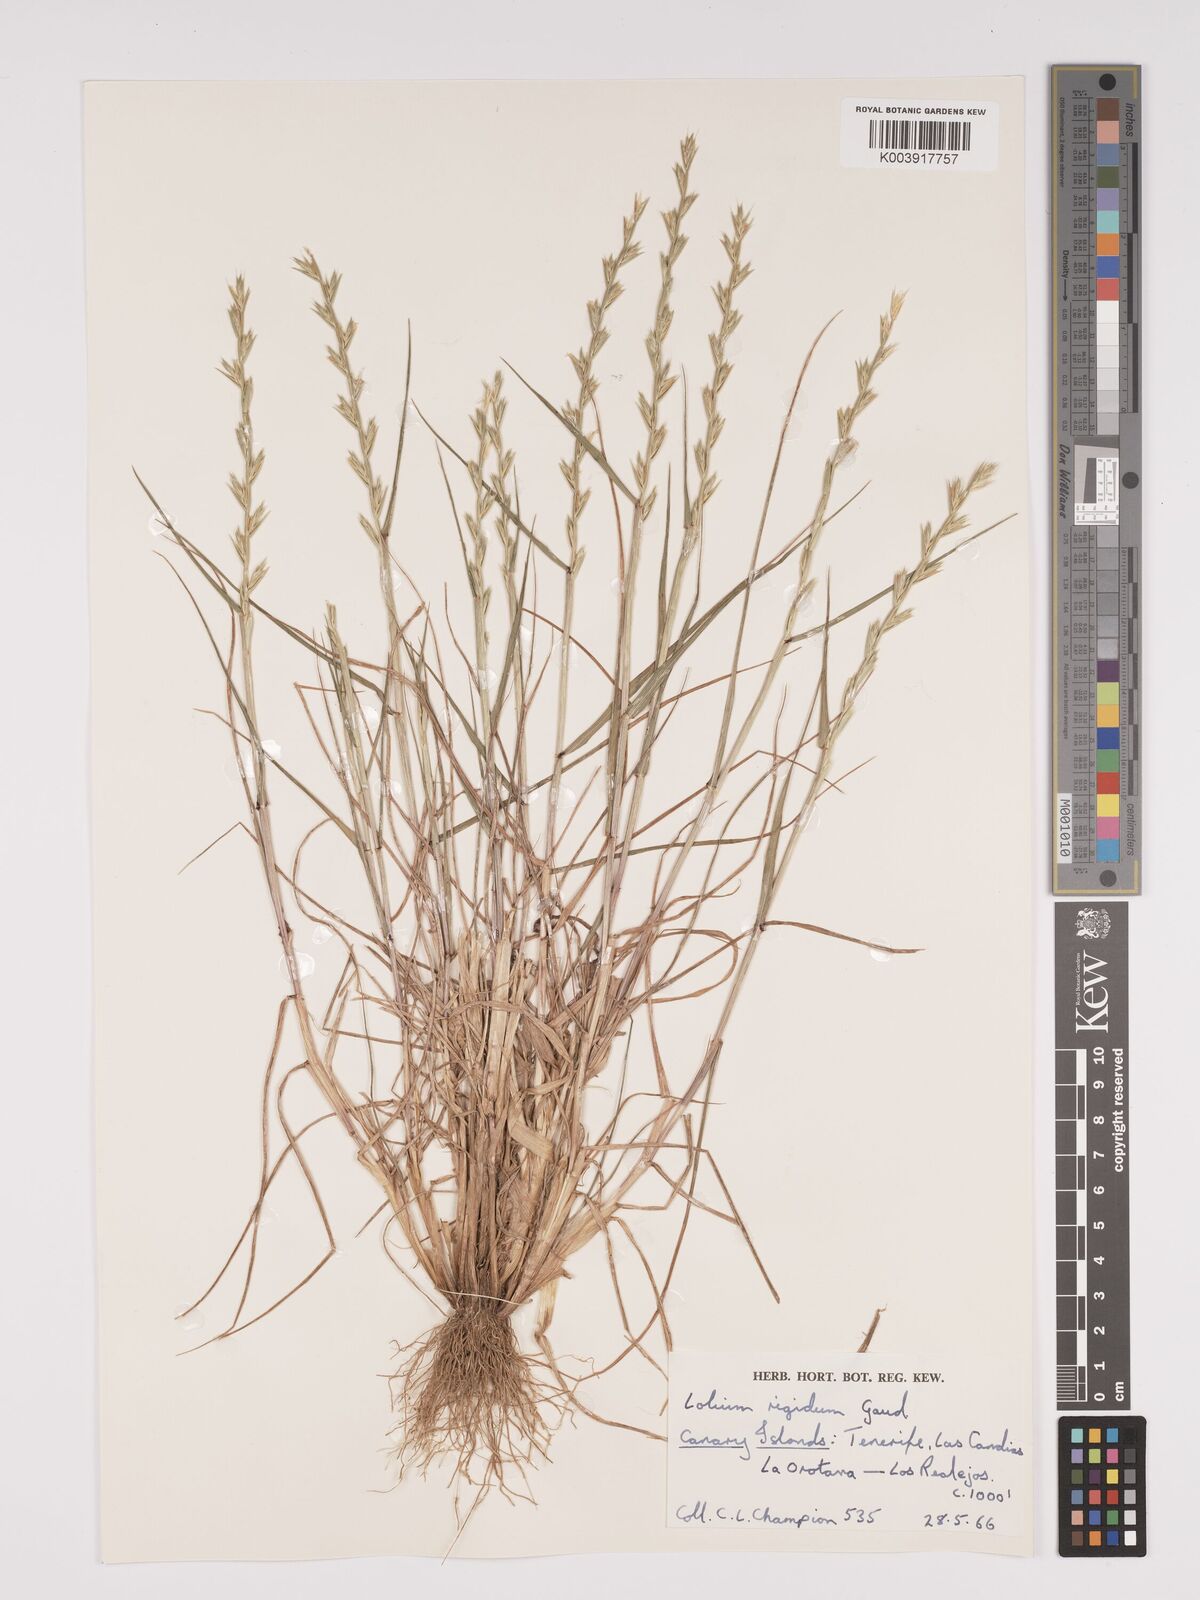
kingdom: Plantae
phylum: Tracheophyta
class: Liliopsida
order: Poales
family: Poaceae
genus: Lolium
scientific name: Lolium rigidum
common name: Wimmera ryegrass
